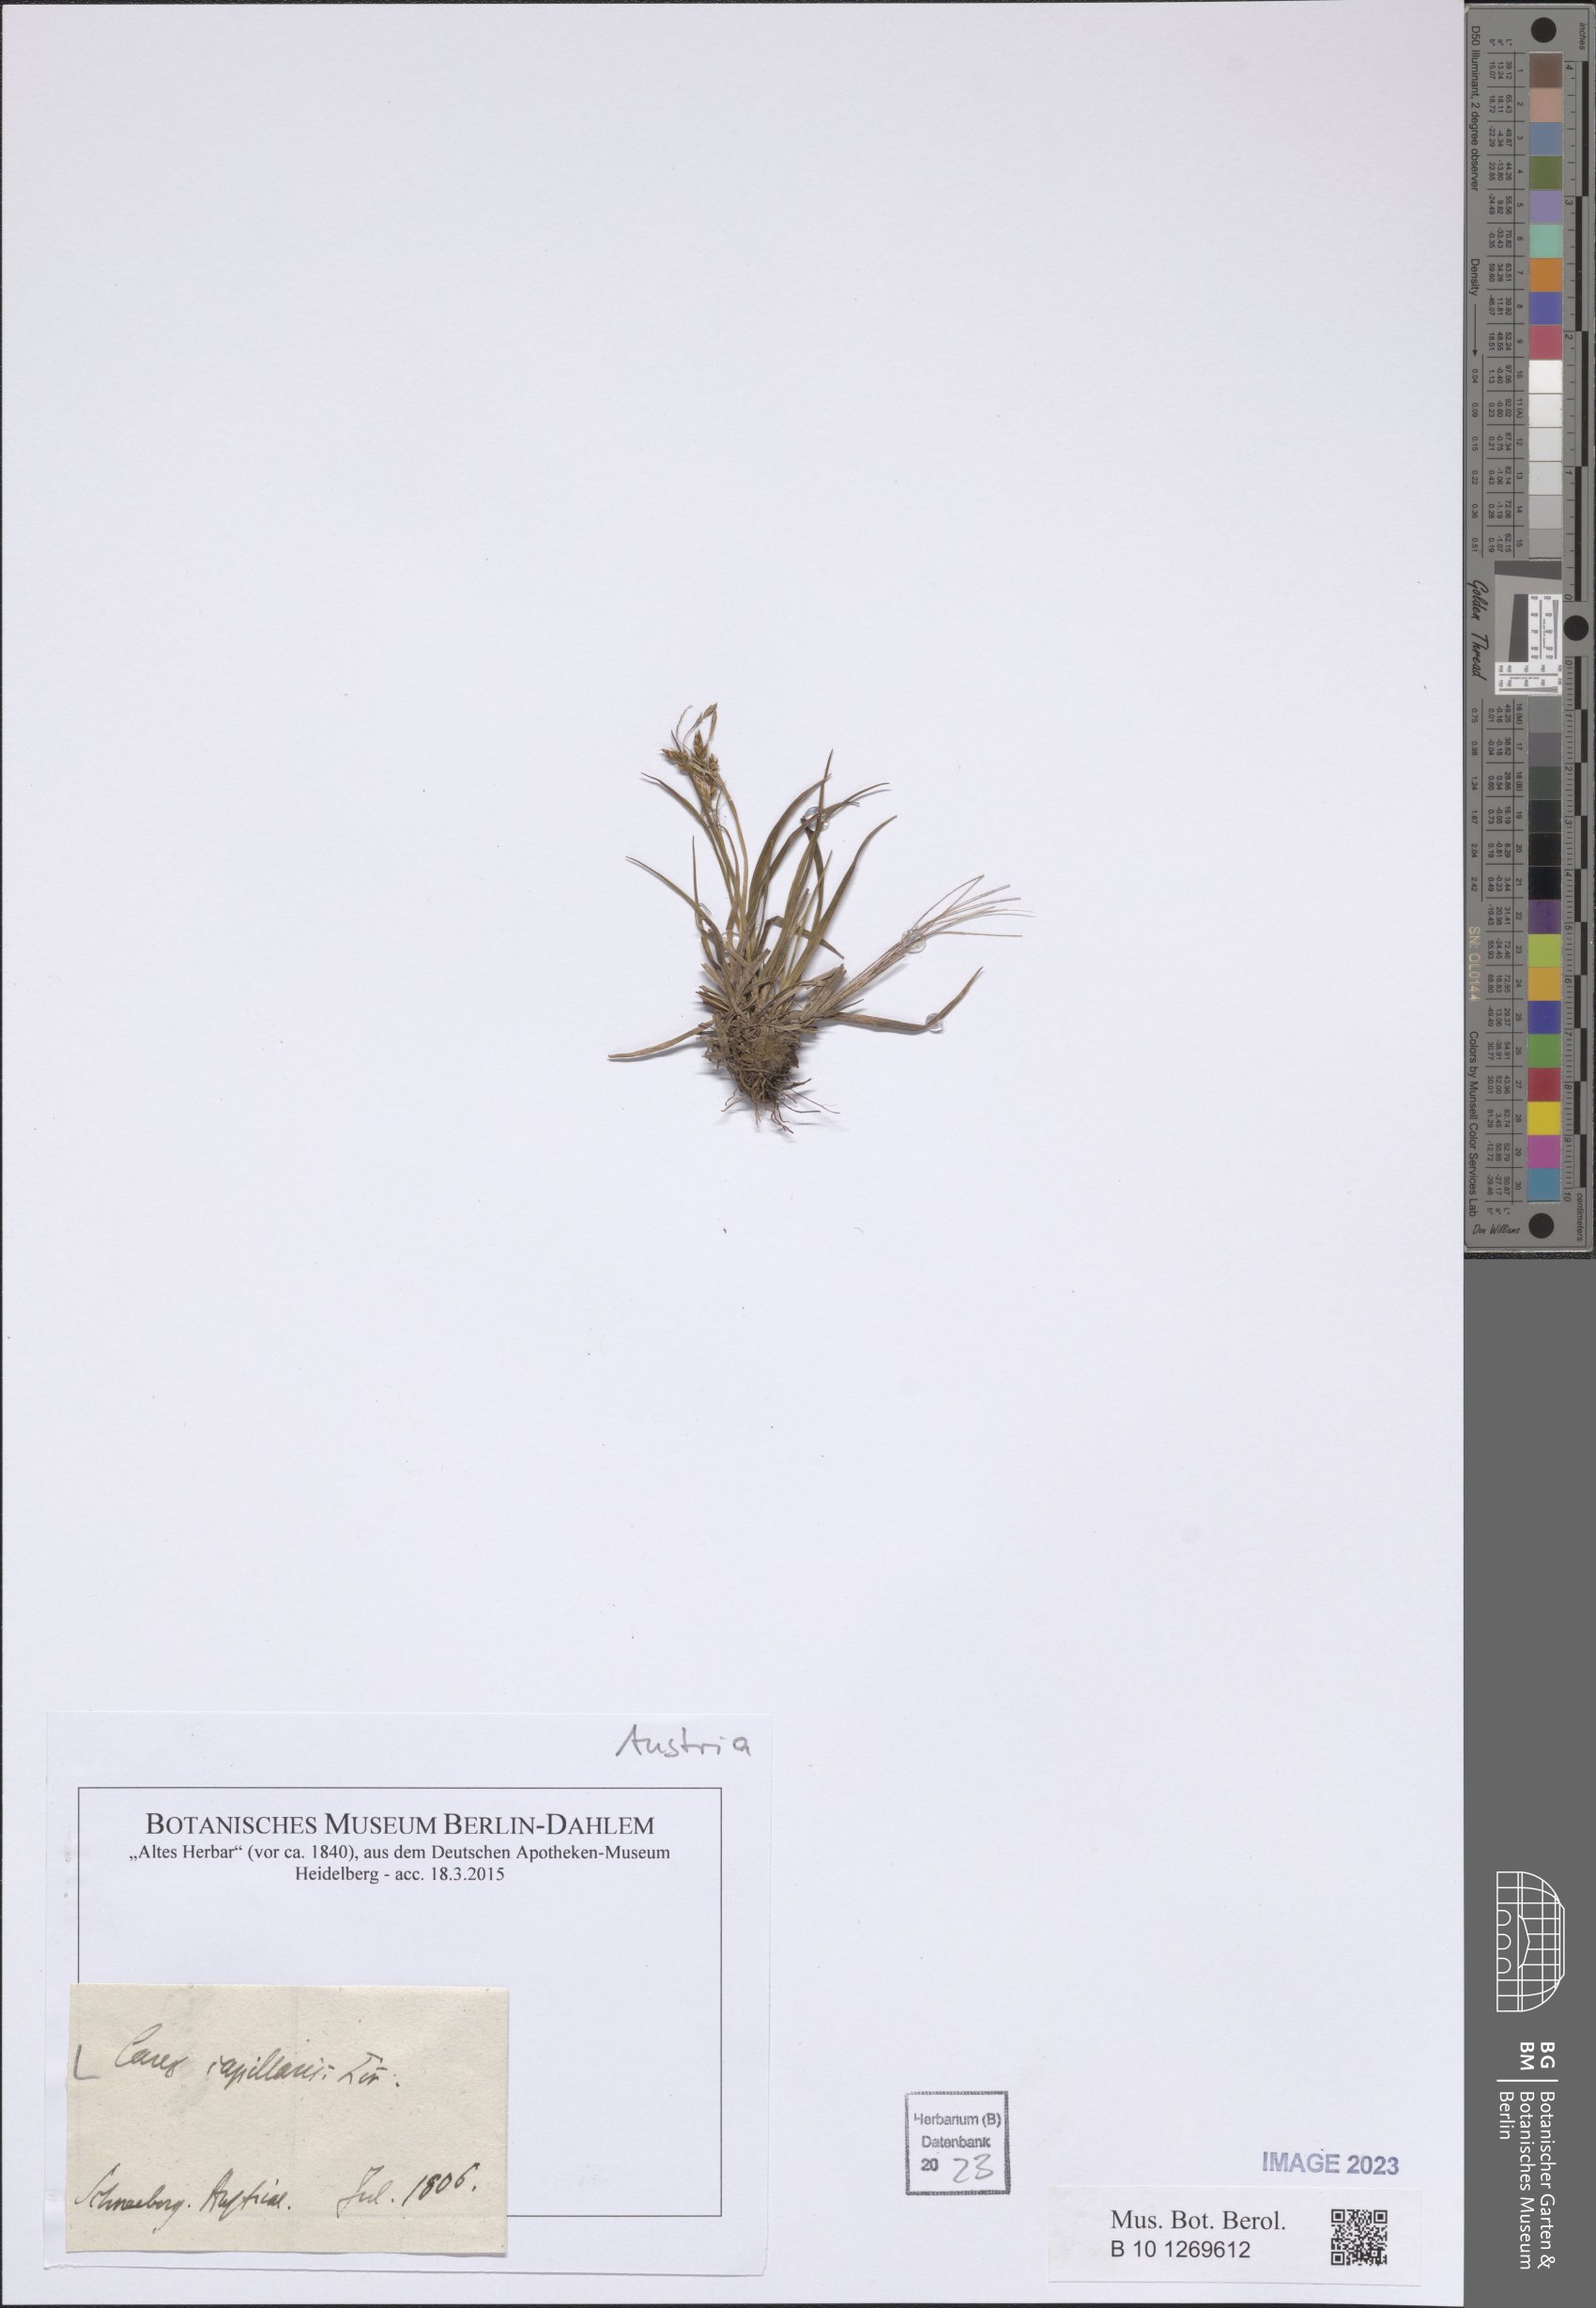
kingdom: Plantae
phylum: Tracheophyta
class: Liliopsida
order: Poales
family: Cyperaceae
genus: Carex
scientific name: Carex halleriana
